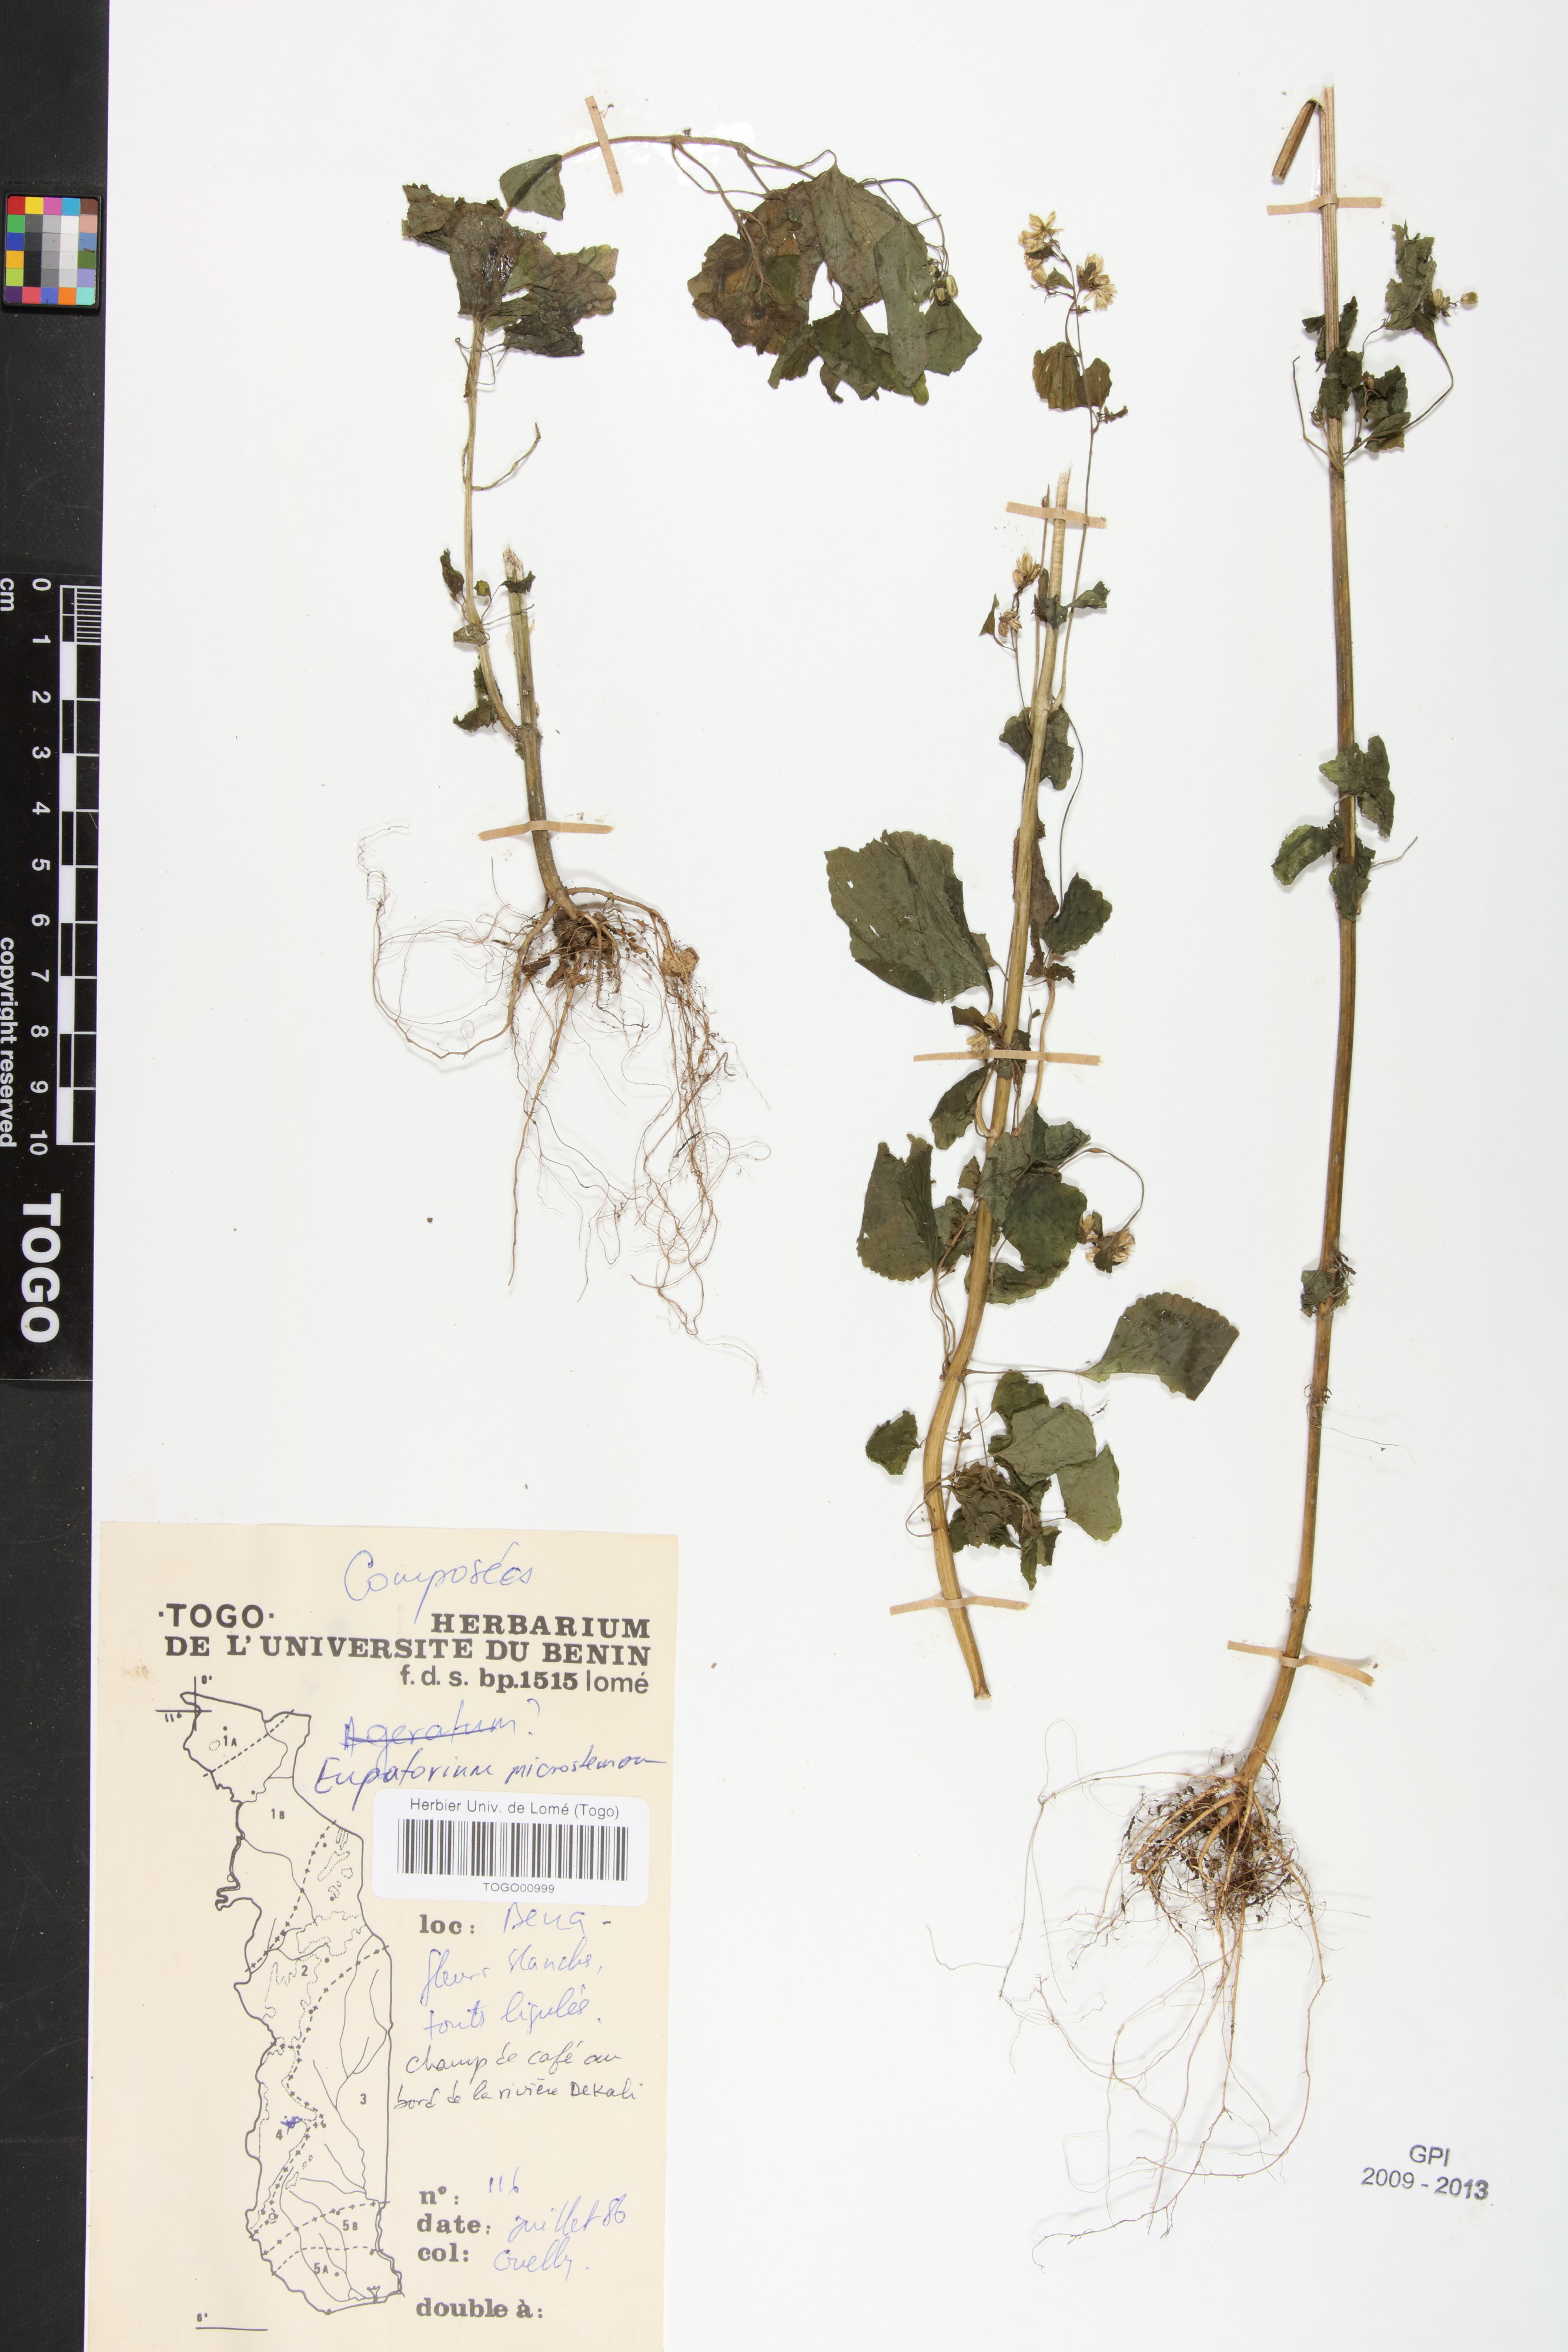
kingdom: Plantae
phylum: Tracheophyta
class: Magnoliopsida
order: Asterales
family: Asteraceae
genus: Fleischmannia
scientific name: Fleischmannia microstemon
